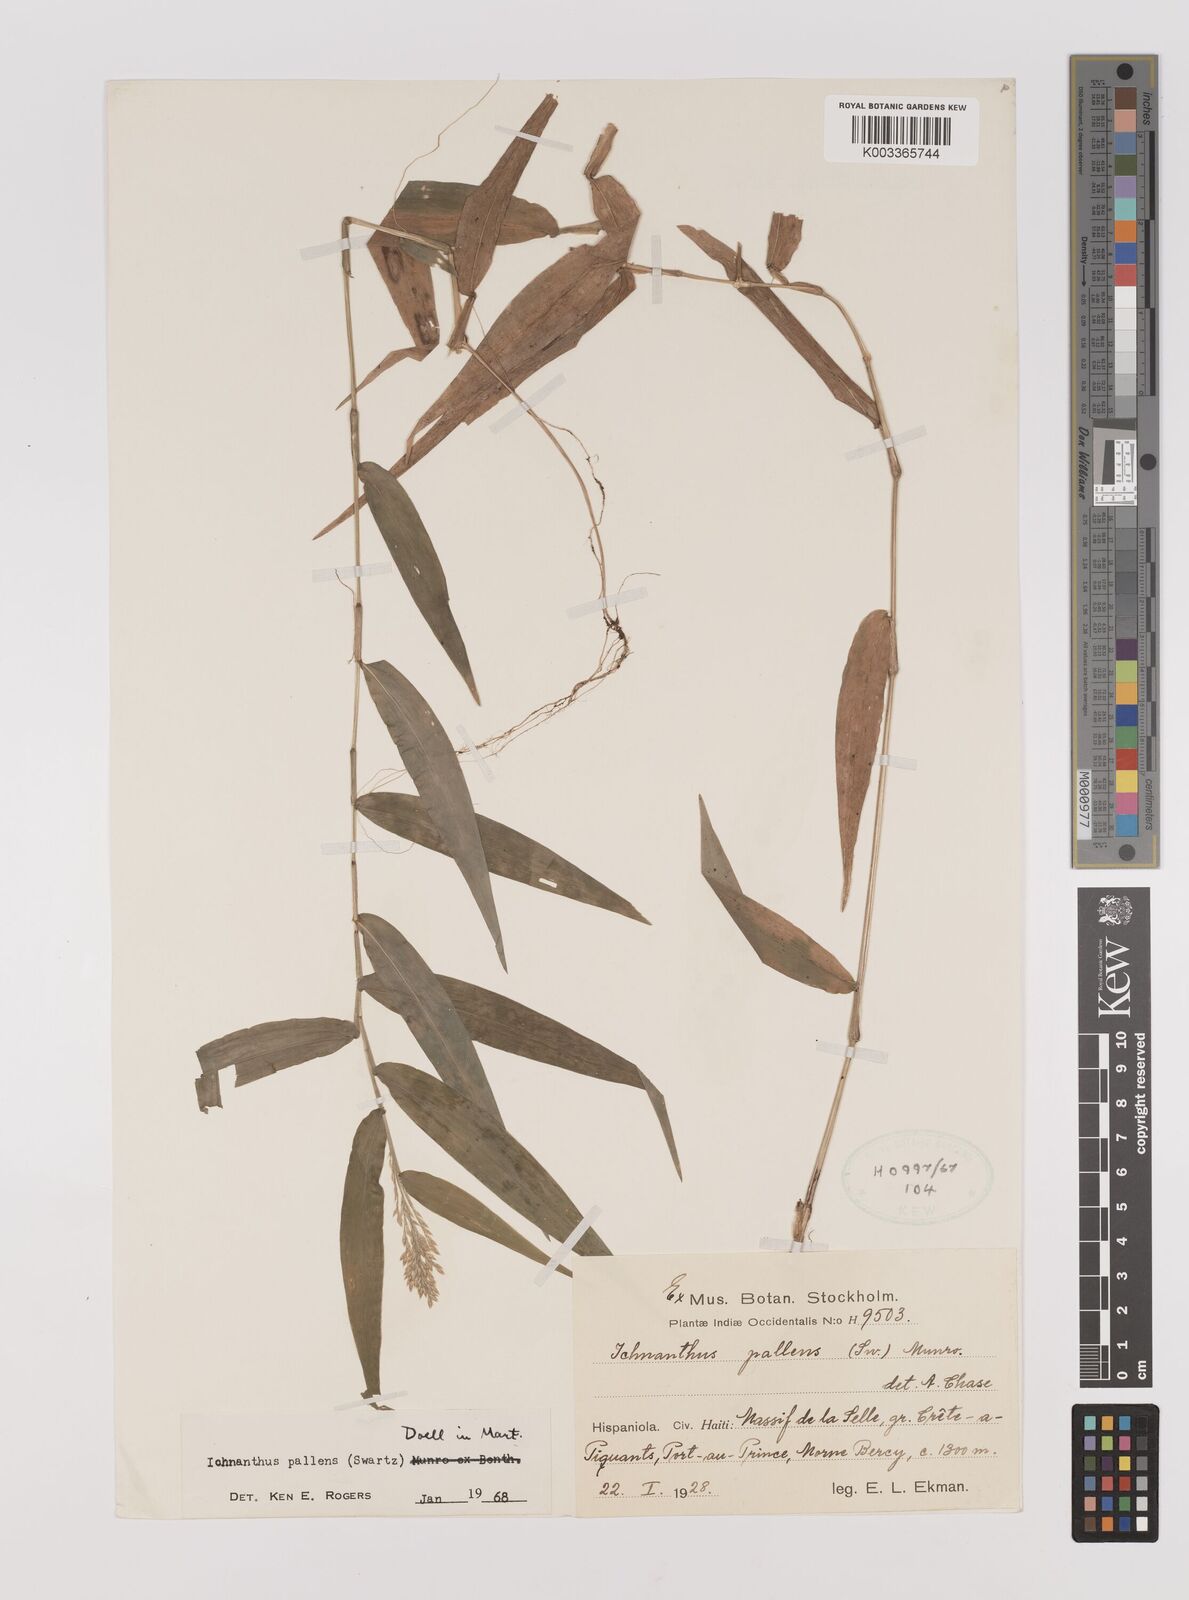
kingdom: Plantae
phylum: Tracheophyta
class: Liliopsida
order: Poales
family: Poaceae
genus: Ichnanthus
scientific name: Ichnanthus pallens
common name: Water grass
